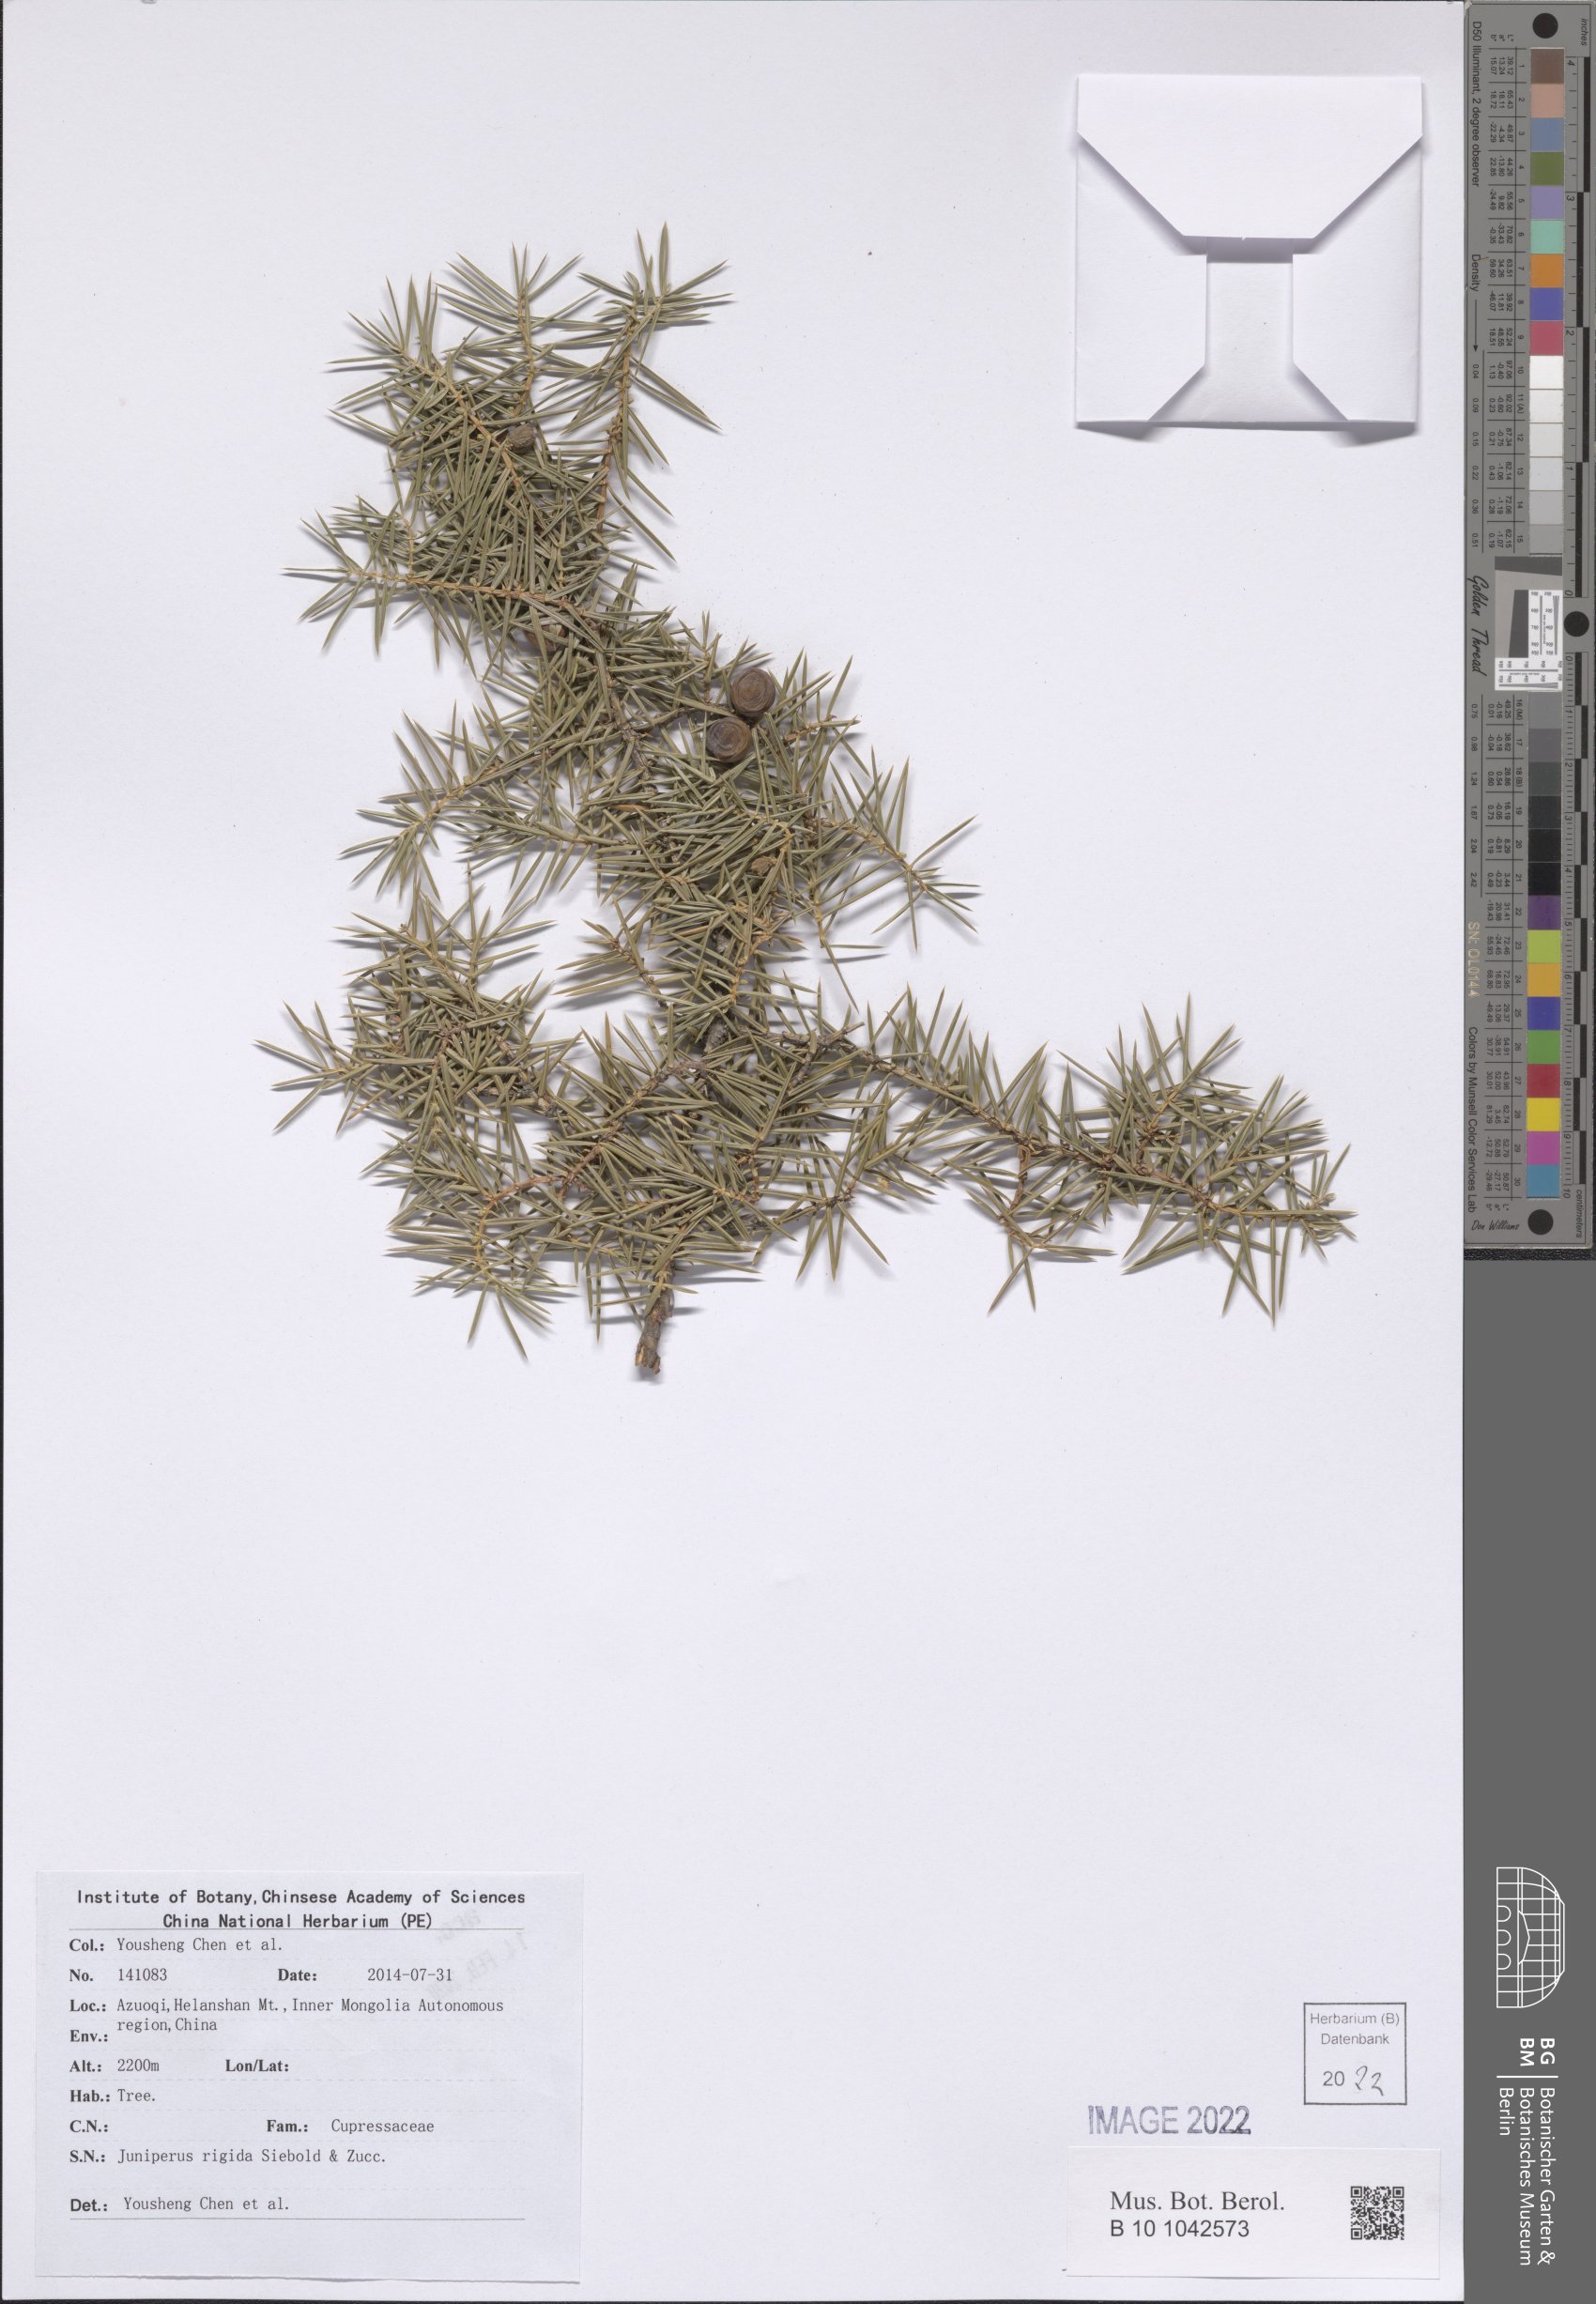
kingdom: Plantae
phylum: Tracheophyta
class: Pinopsida
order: Pinales
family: Cupressaceae
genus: Juniperus
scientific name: Juniperus rigida
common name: Needle juniper
